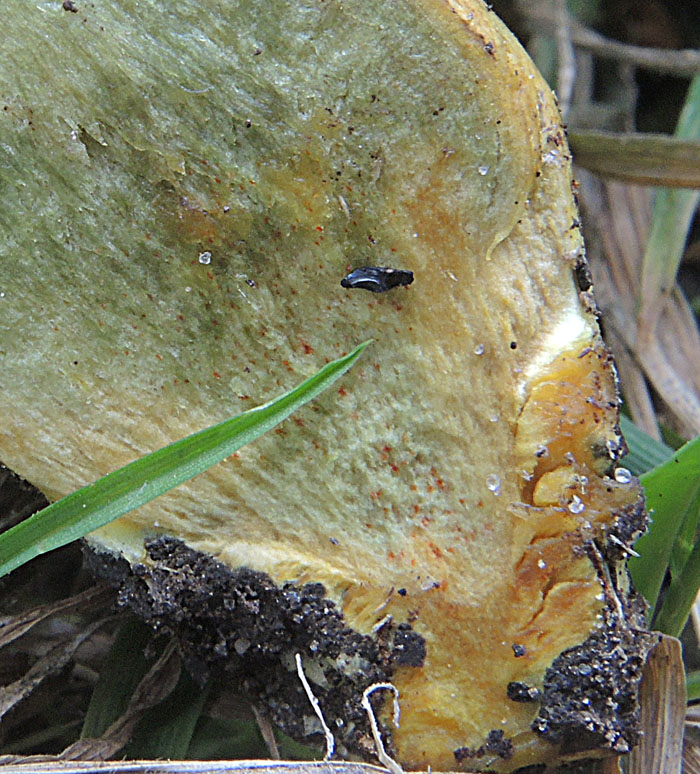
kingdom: Fungi
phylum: Basidiomycota
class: Agaricomycetes
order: Boletales
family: Boletaceae
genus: Hortiboletus
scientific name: Hortiboletus engelii
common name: fersken-rørhat
